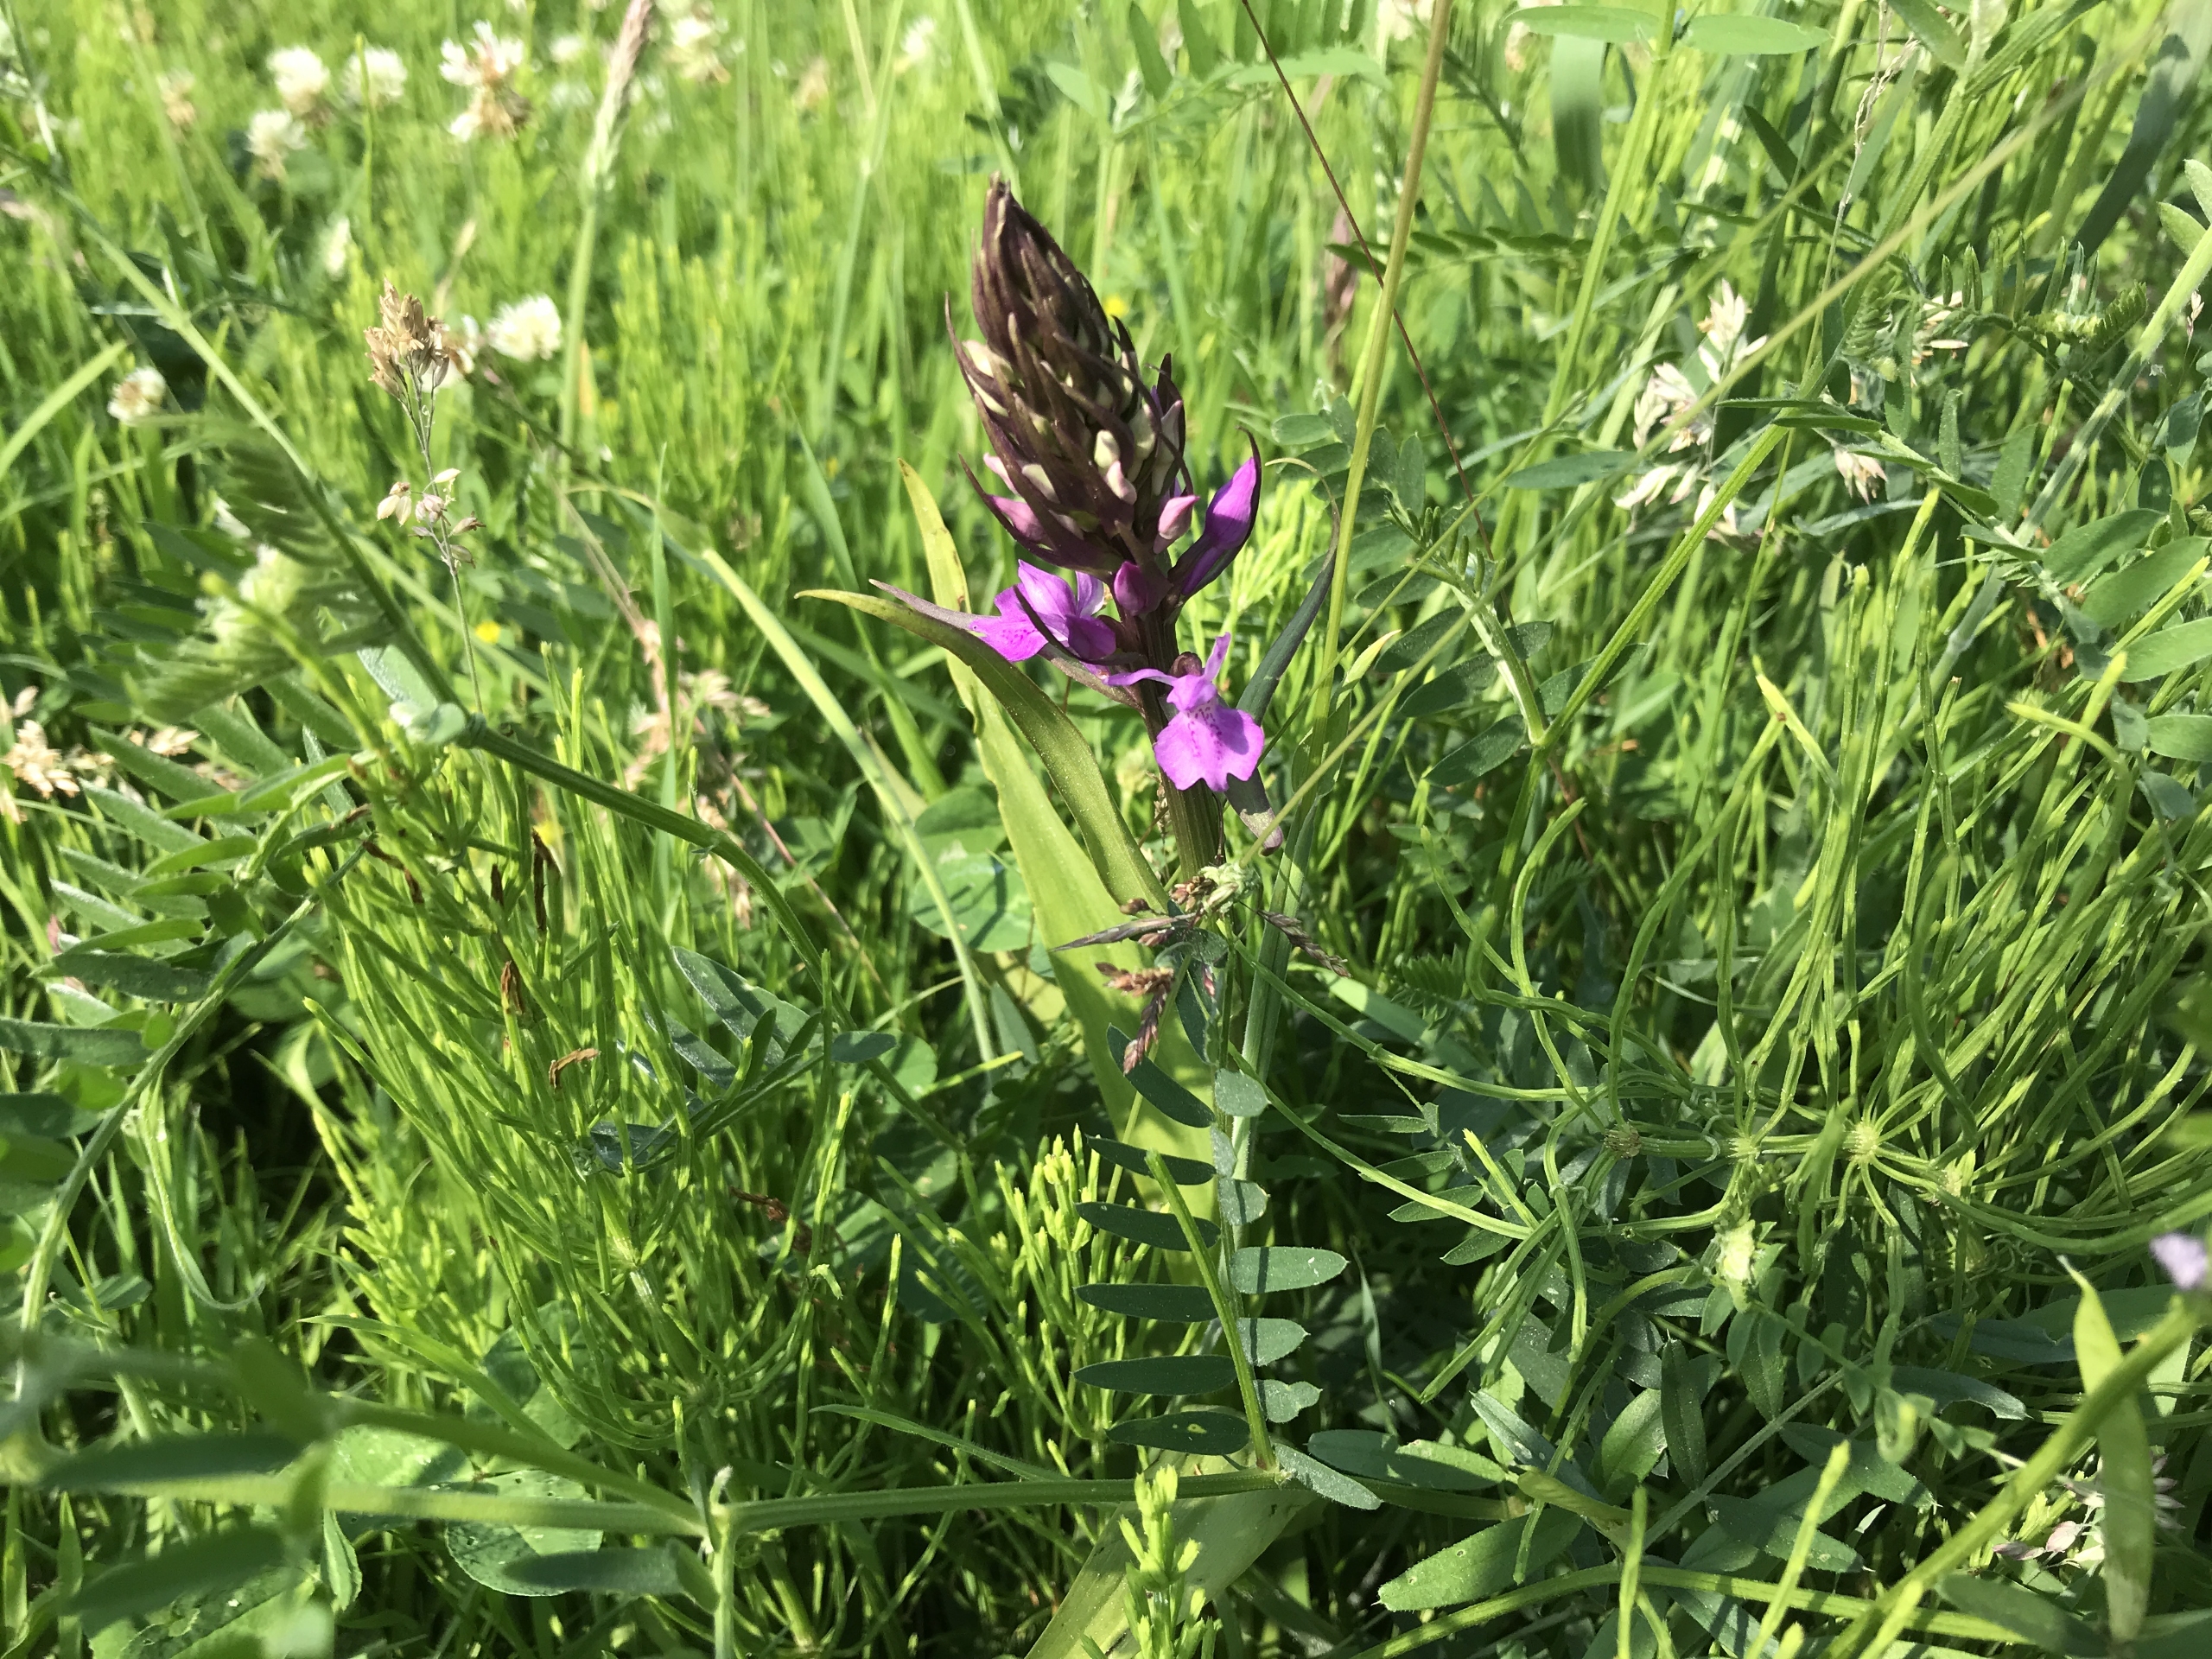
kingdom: Plantae
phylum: Tracheophyta
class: Liliopsida
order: Asparagales
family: Orchidaceae
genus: Dactylorhiza
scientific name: Dactylorhiza majalis
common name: Priklæbet gøgeurt
